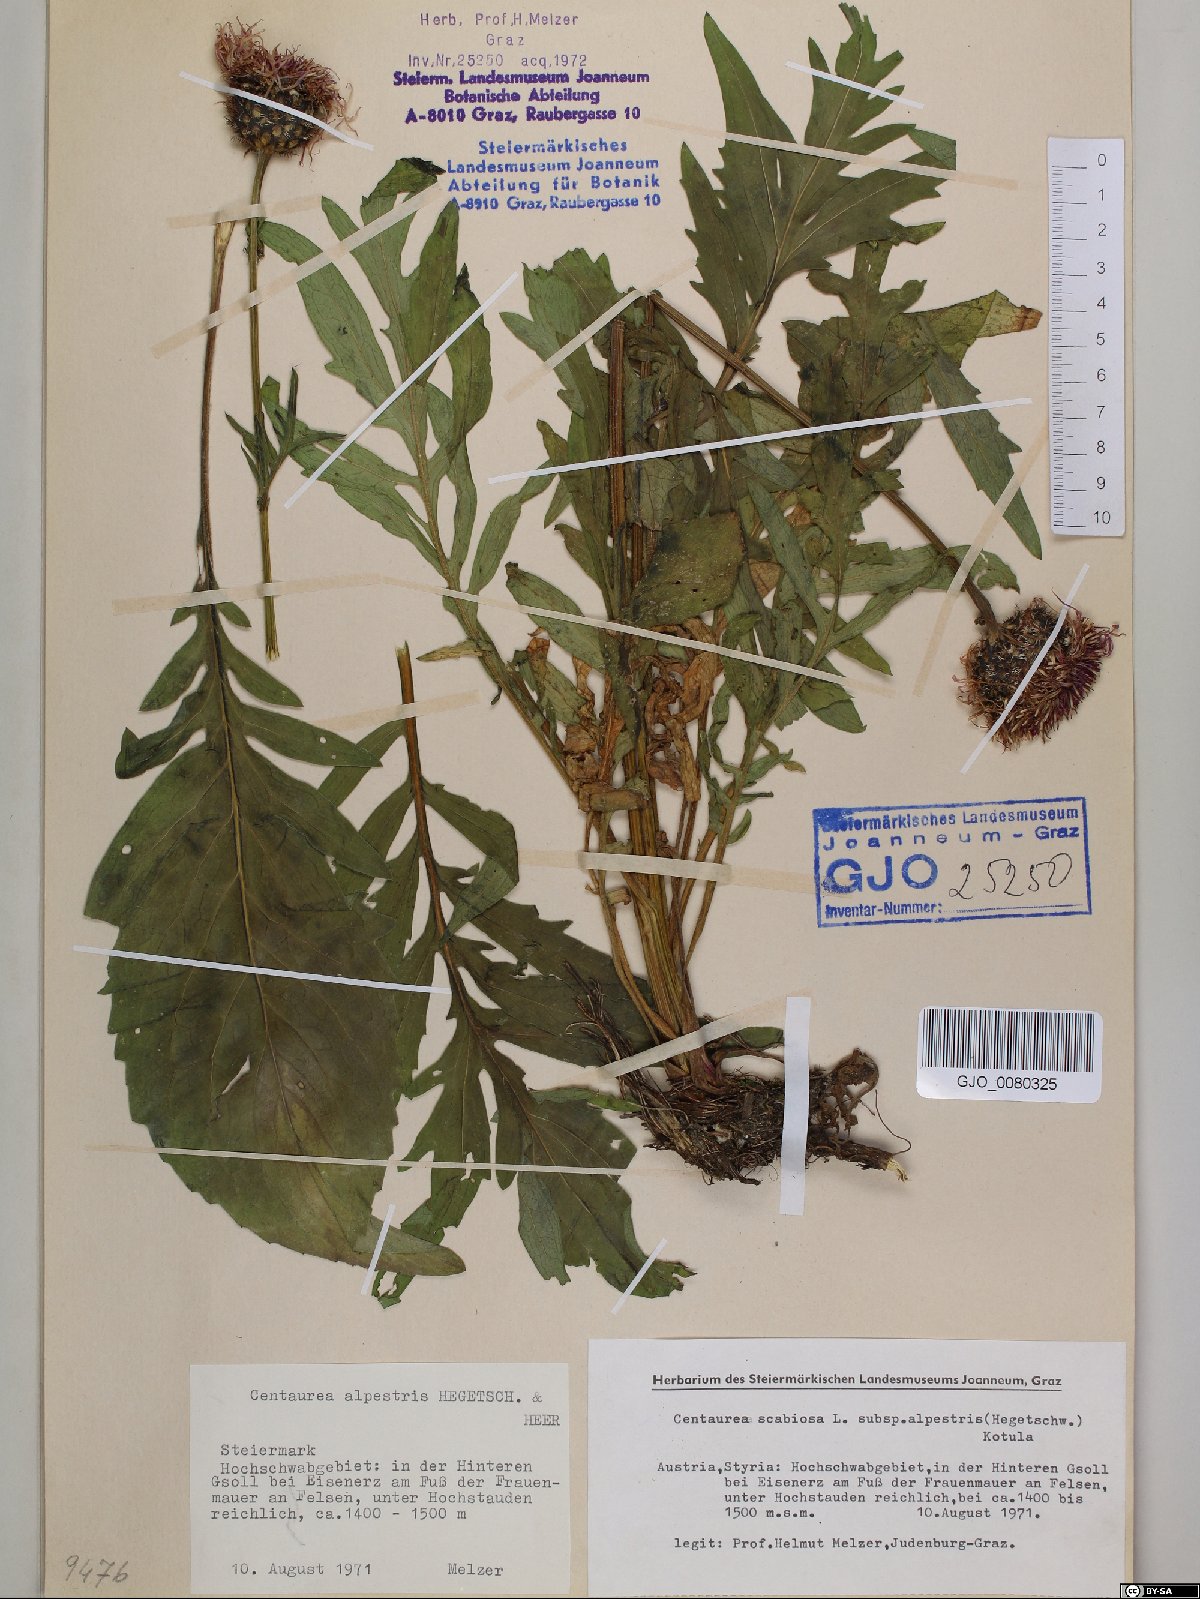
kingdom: Plantae
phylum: Tracheophyta
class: Magnoliopsida
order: Asterales
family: Asteraceae
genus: Centaurea
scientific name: Centaurea scabiosa
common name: Greater knapweed
